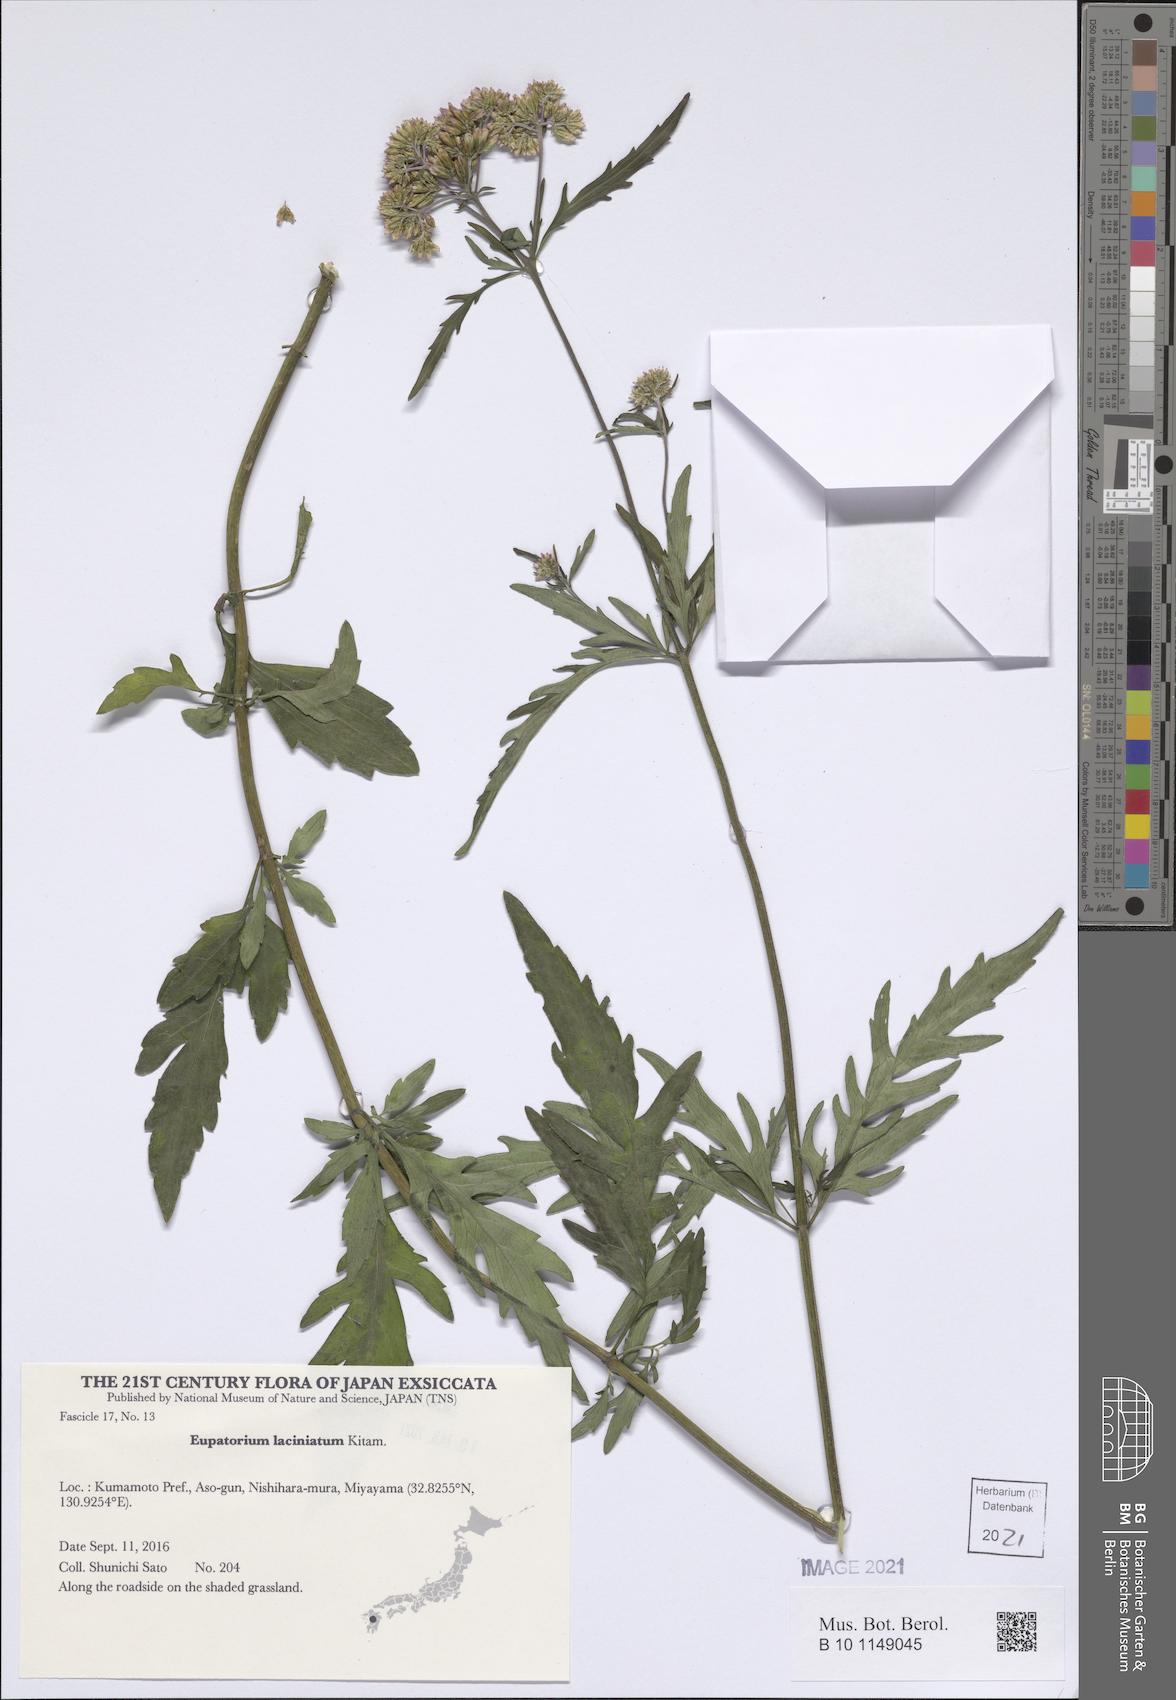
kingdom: Plantae
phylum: Tracheophyta
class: Magnoliopsida
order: Asterales
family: Asteraceae
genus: Eupatorium
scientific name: Eupatorium laciniatum
